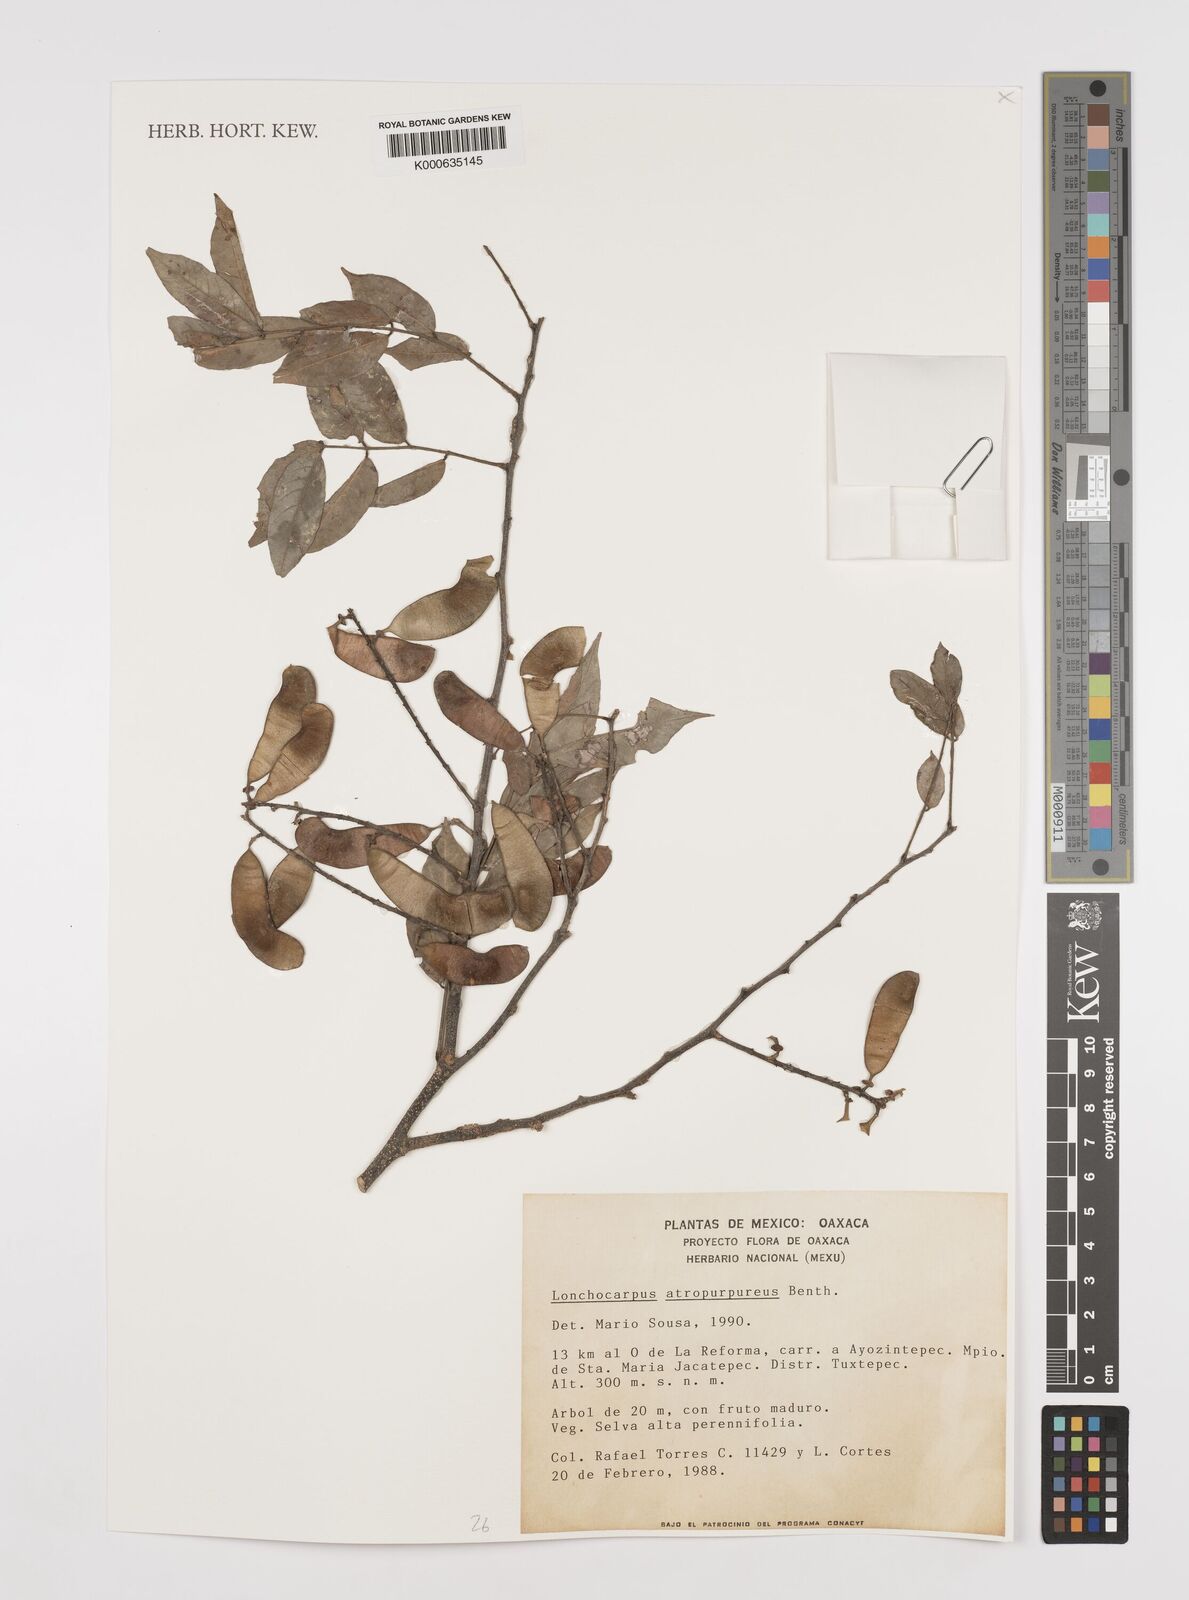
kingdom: Plantae
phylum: Tracheophyta
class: Magnoliopsida
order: Fabales
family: Fabaceae
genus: Lonchocarpus
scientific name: Lonchocarpus atropurpureus
